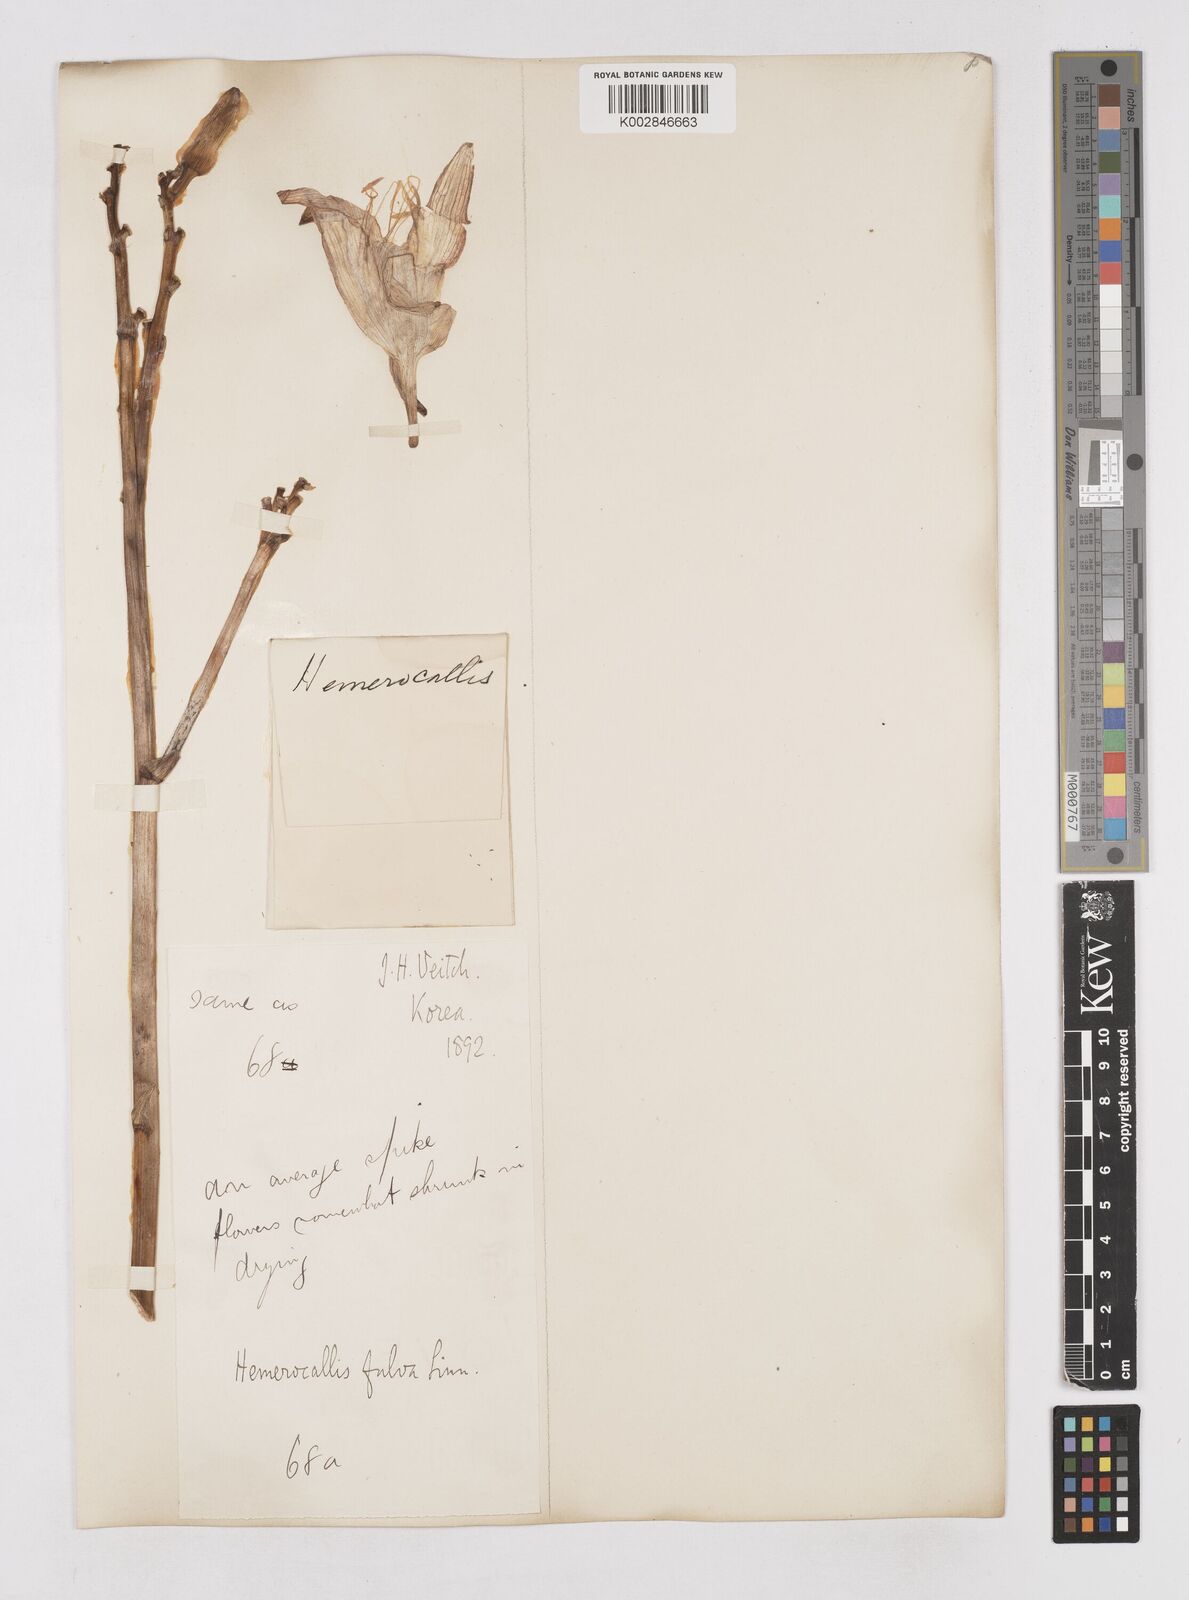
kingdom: Plantae
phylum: Tracheophyta
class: Liliopsida
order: Asparagales
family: Asphodelaceae
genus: Hemerocallis
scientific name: Hemerocallis fulva
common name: Orange day-lily
